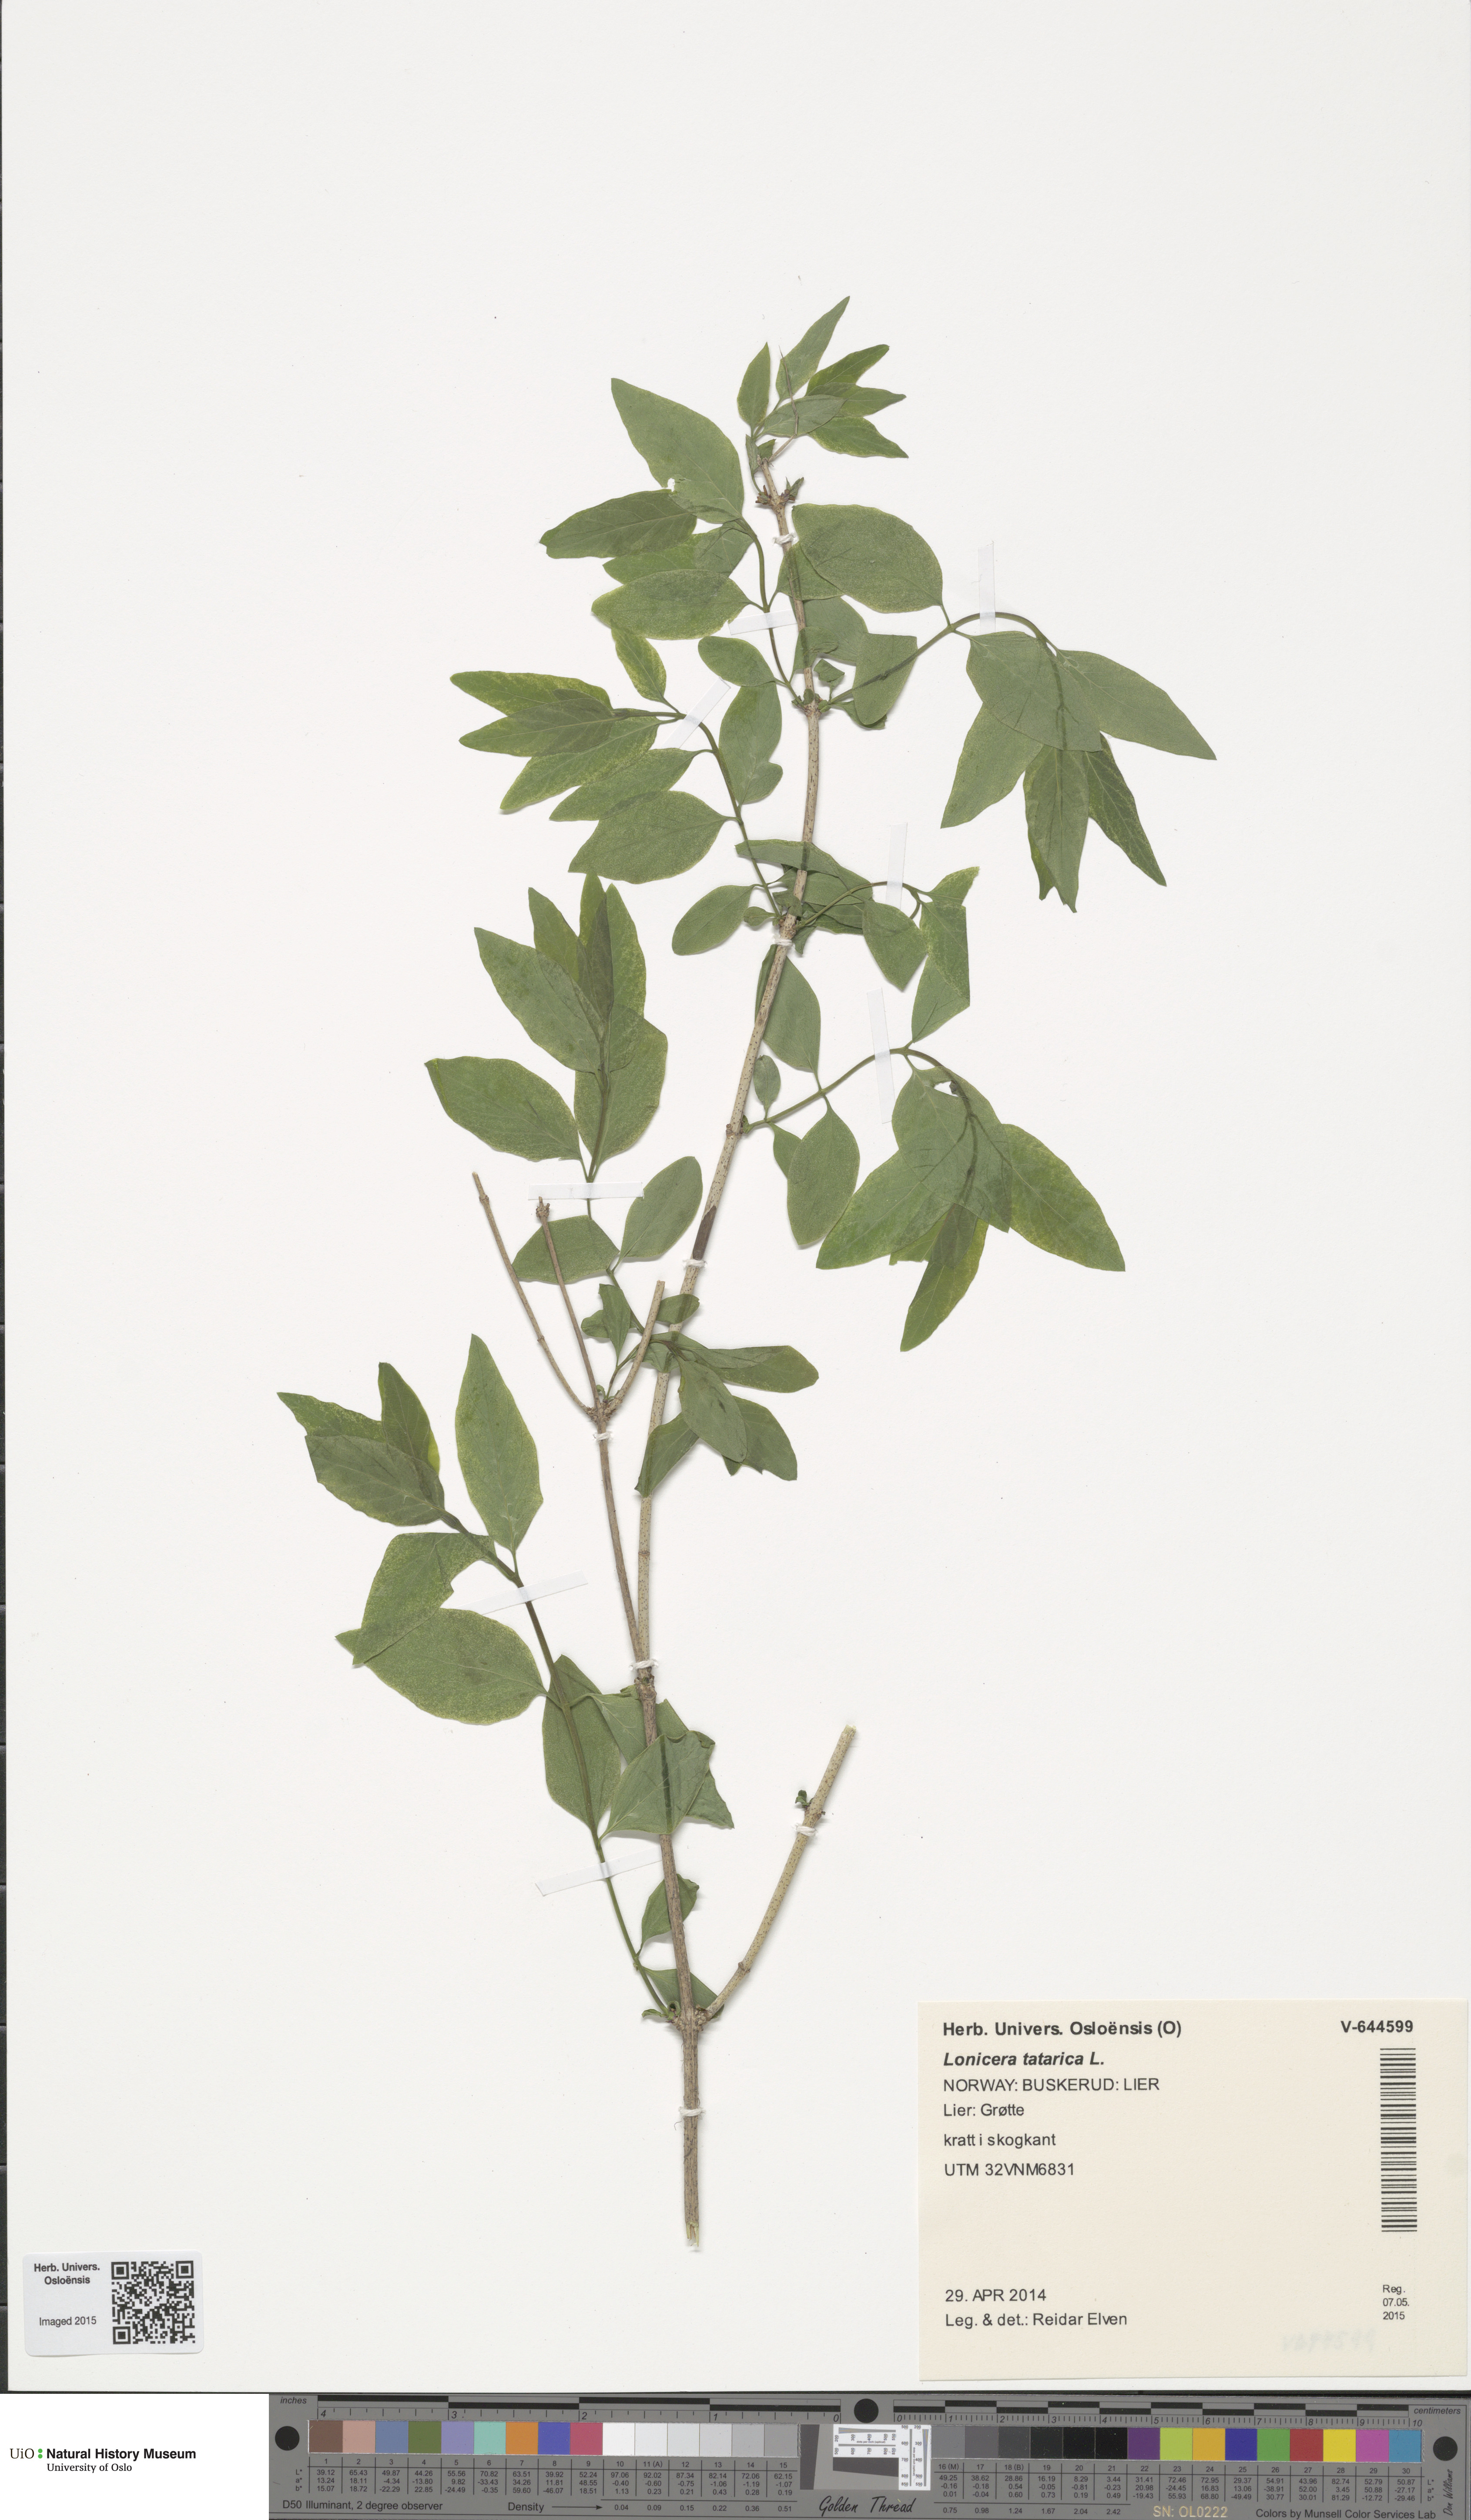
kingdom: Plantae
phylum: Tracheophyta
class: Magnoliopsida
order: Dipsacales
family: Caprifoliaceae
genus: Lonicera
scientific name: Lonicera tatarica
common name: Tatarian honeysuckle
